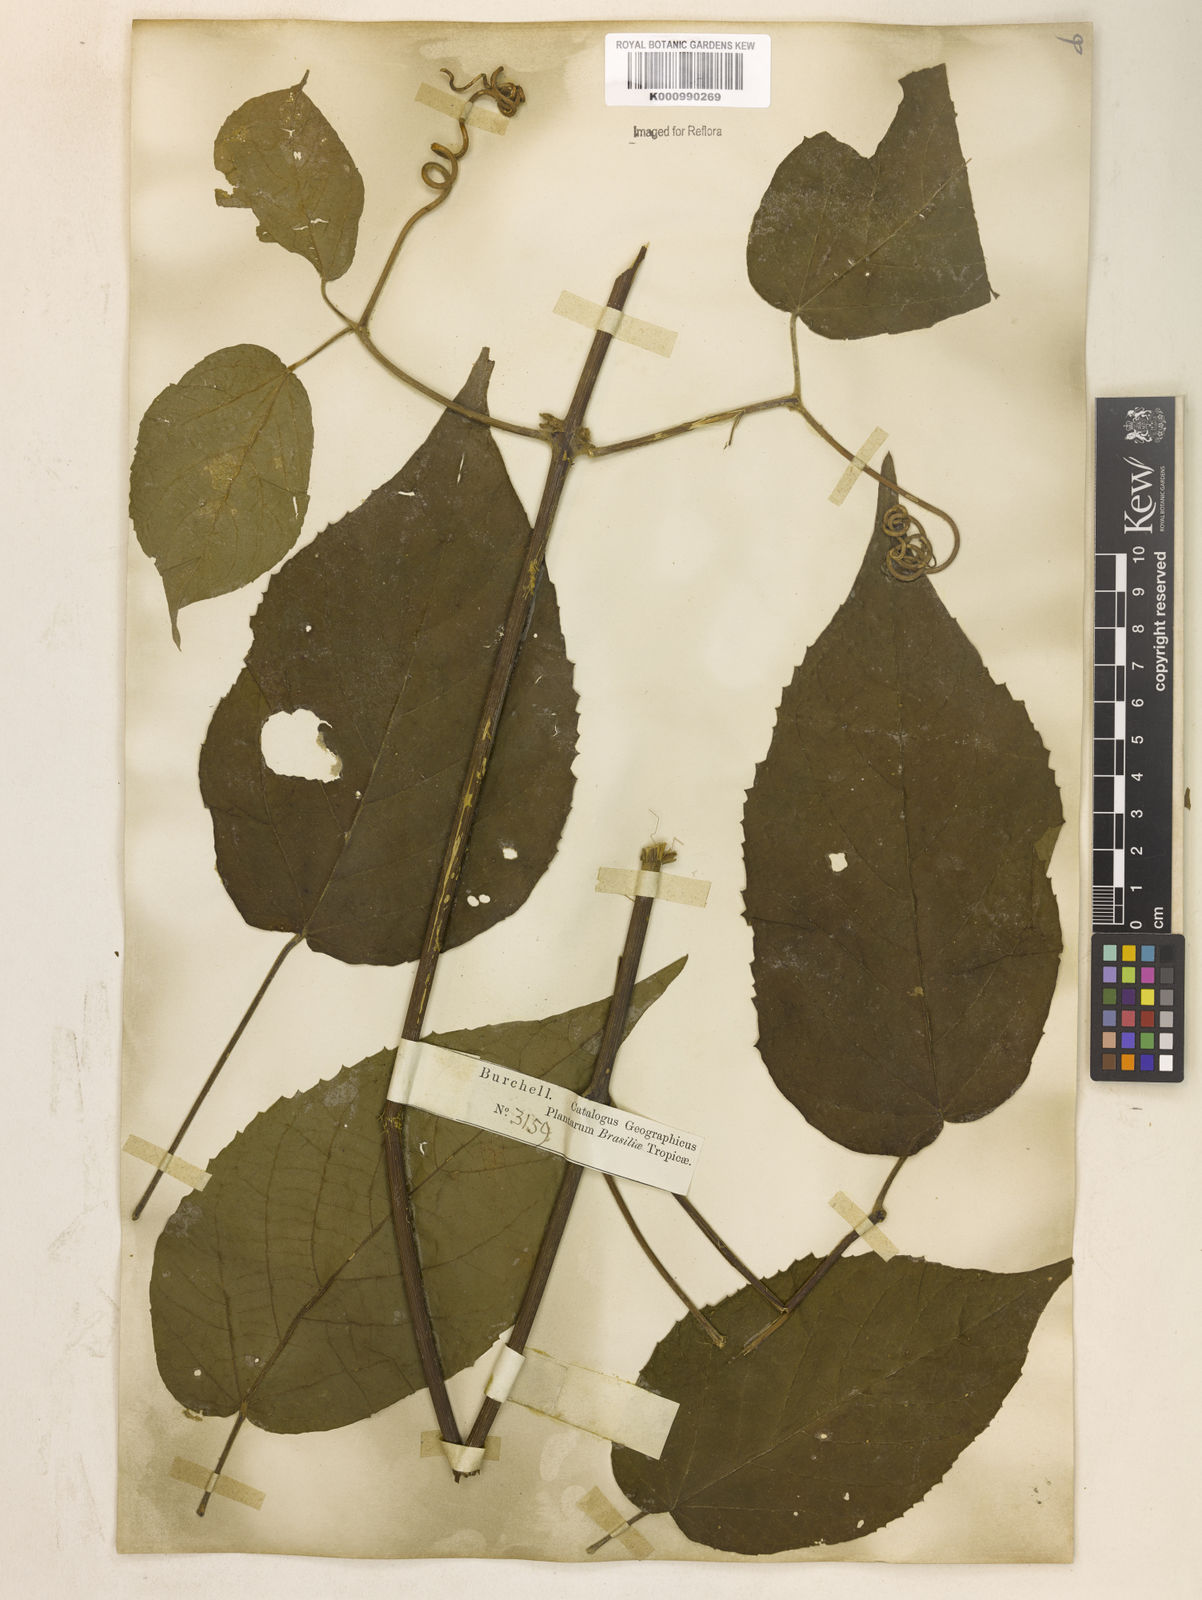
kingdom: Plantae
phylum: Tracheophyta
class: Magnoliopsida
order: Lamiales
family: Bignoniaceae
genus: Stizophyllum
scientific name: Stizophyllum perforatum
